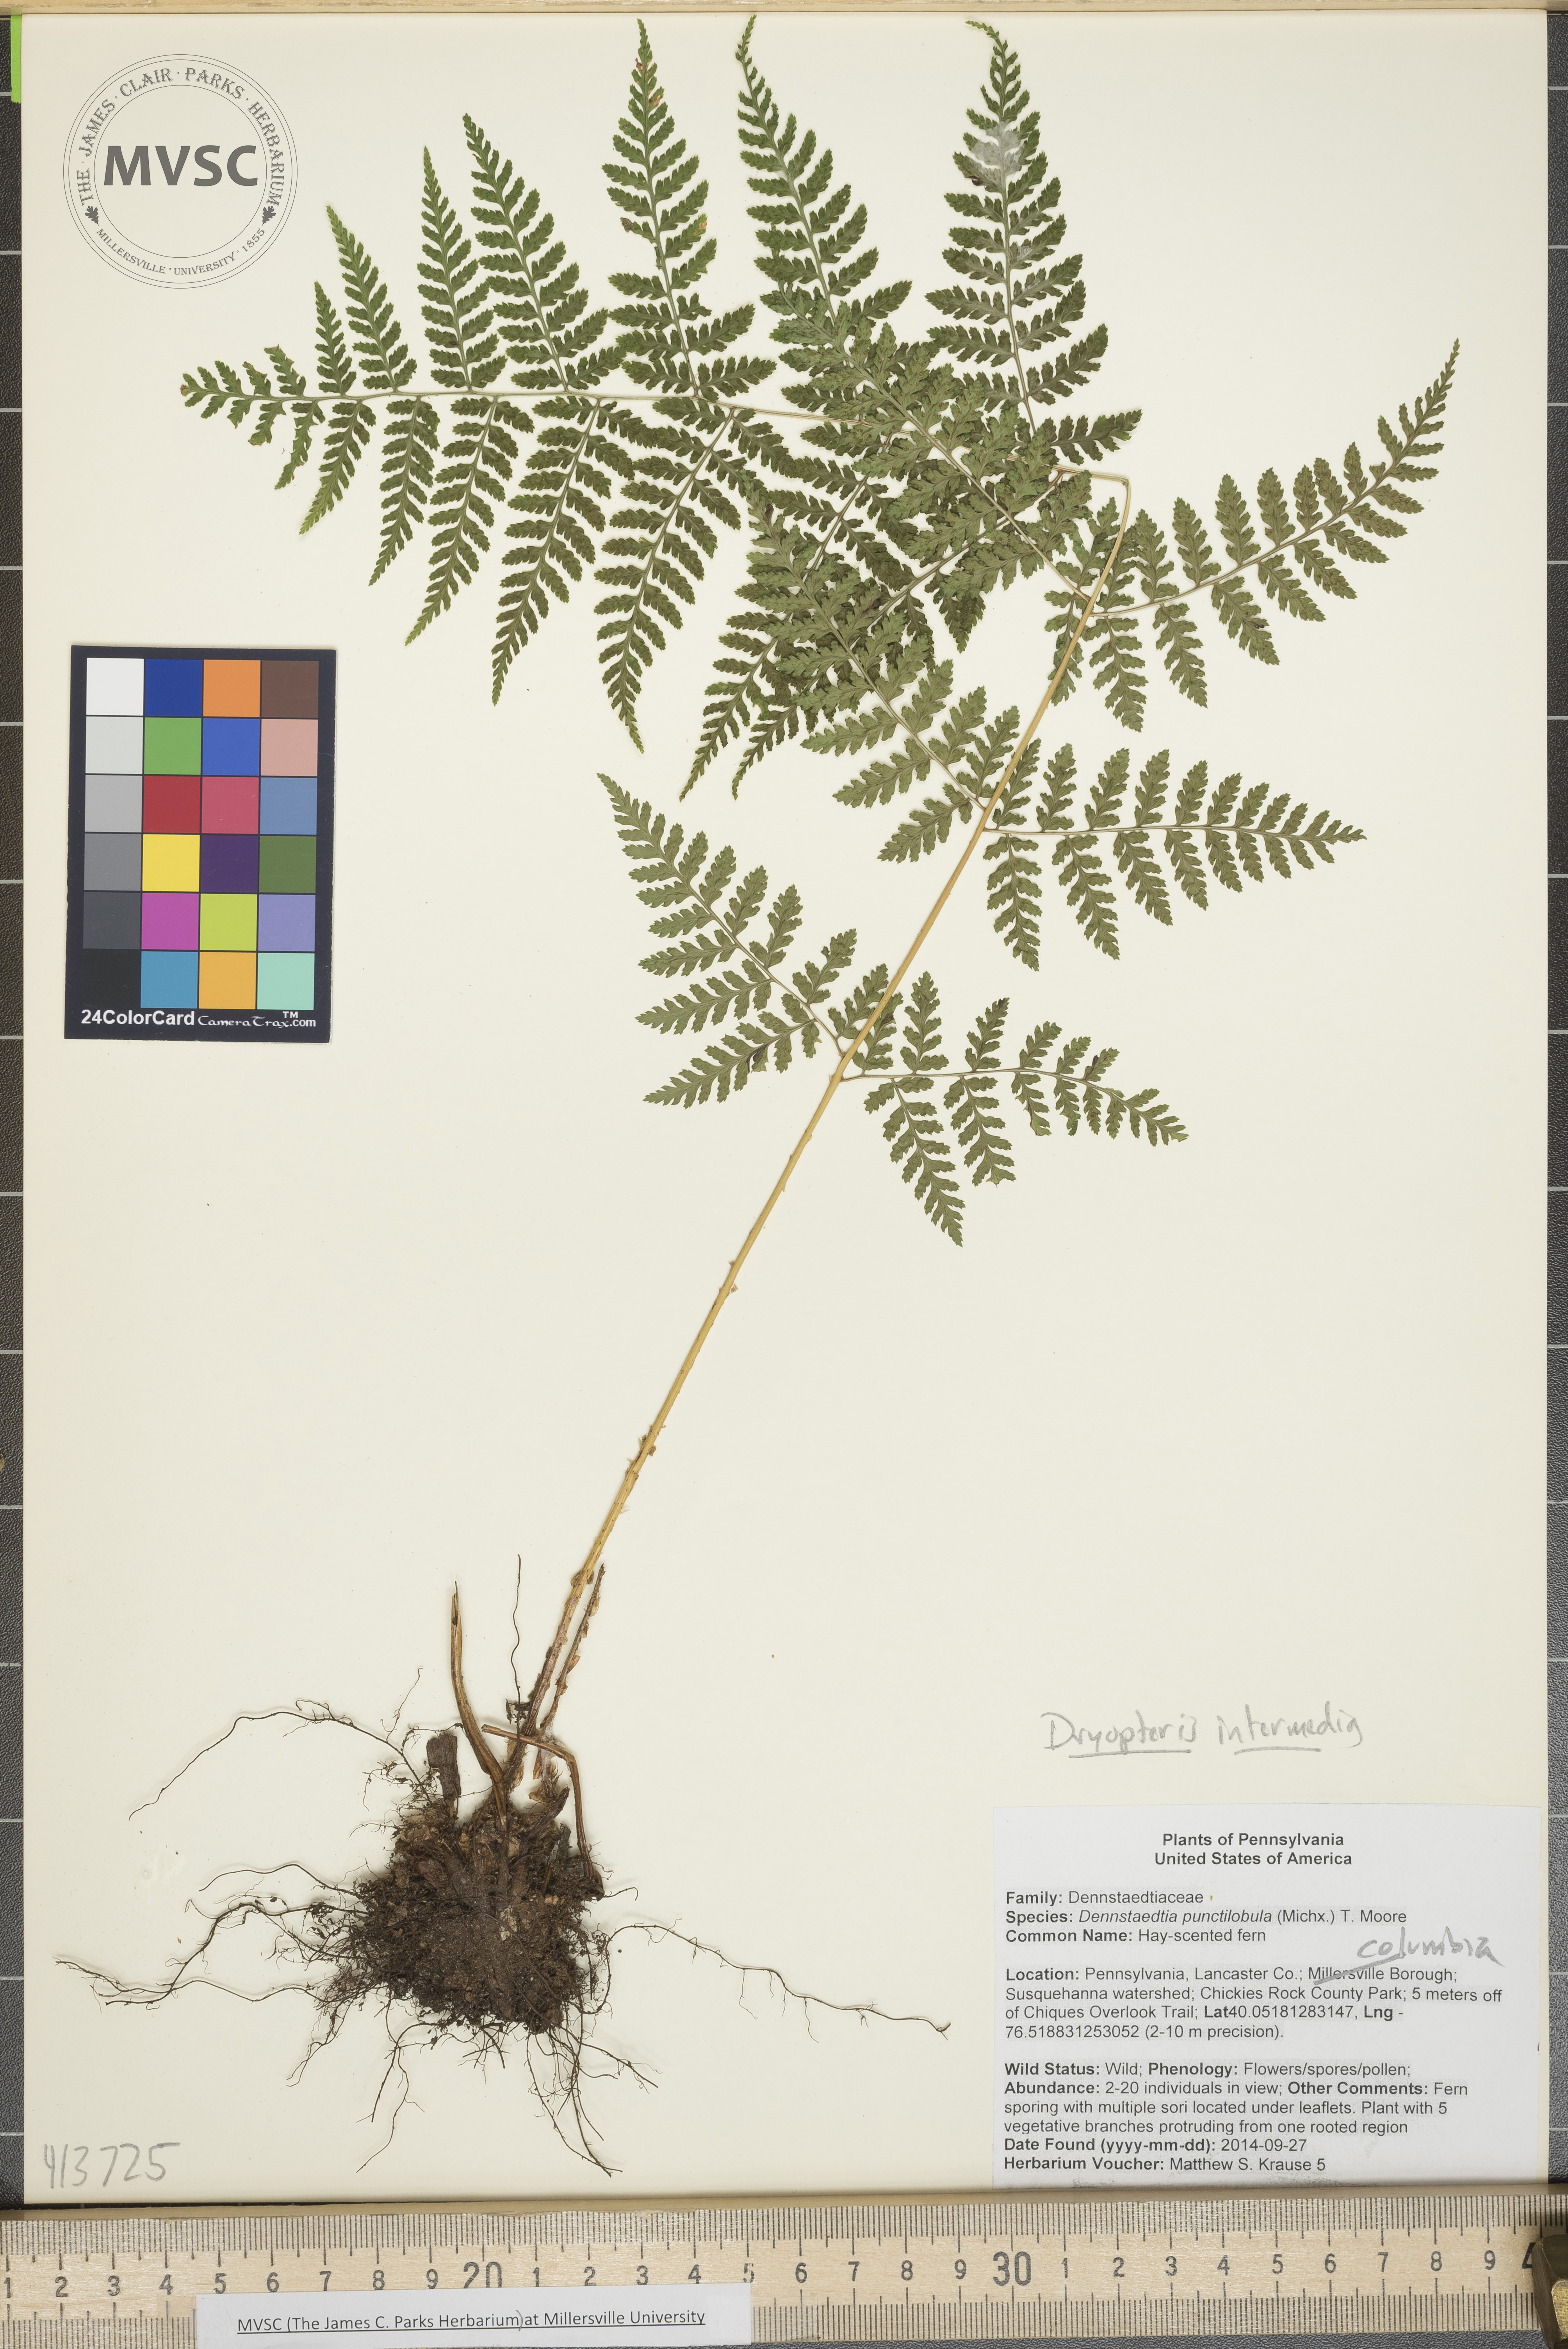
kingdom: Plantae
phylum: Tracheophyta
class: Polypodiopsida
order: Polypodiales
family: Dryopteridaceae
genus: Dryopteris
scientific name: Dryopteris intermedia
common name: Fancy wood fern
